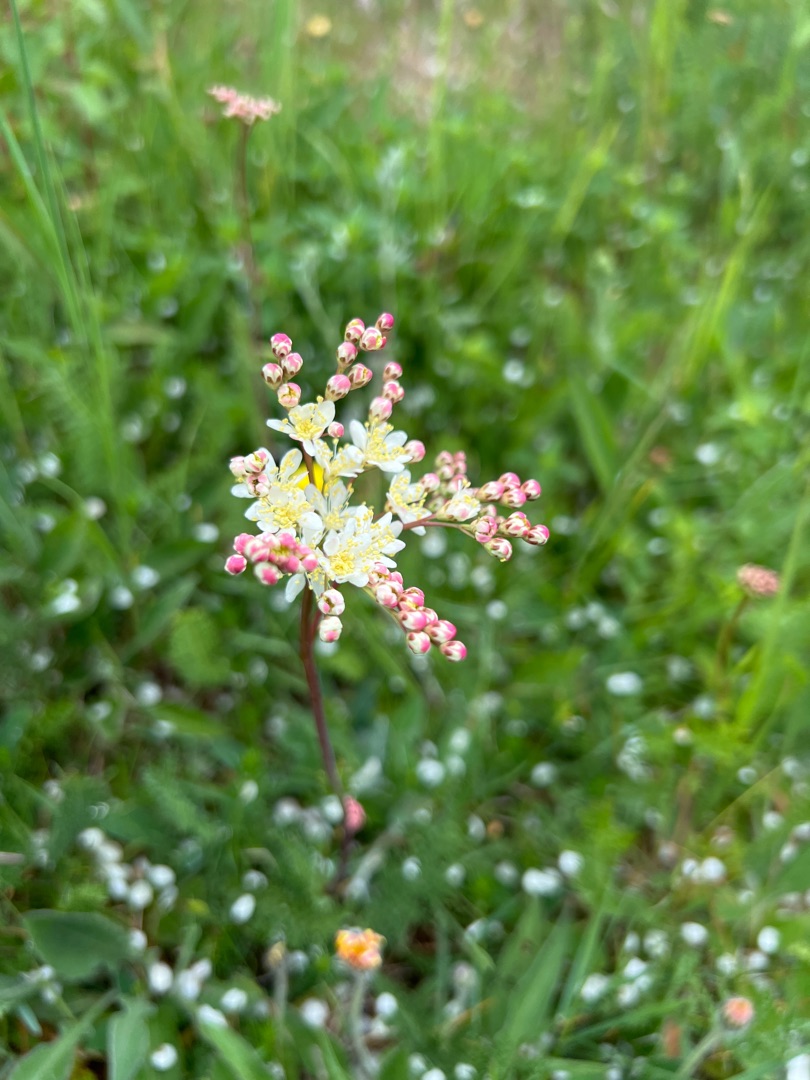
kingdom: Plantae
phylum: Tracheophyta
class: Magnoliopsida
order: Rosales
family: Rosaceae
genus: Filipendula
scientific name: Filipendula vulgaris
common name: Knoldet mjødurt
